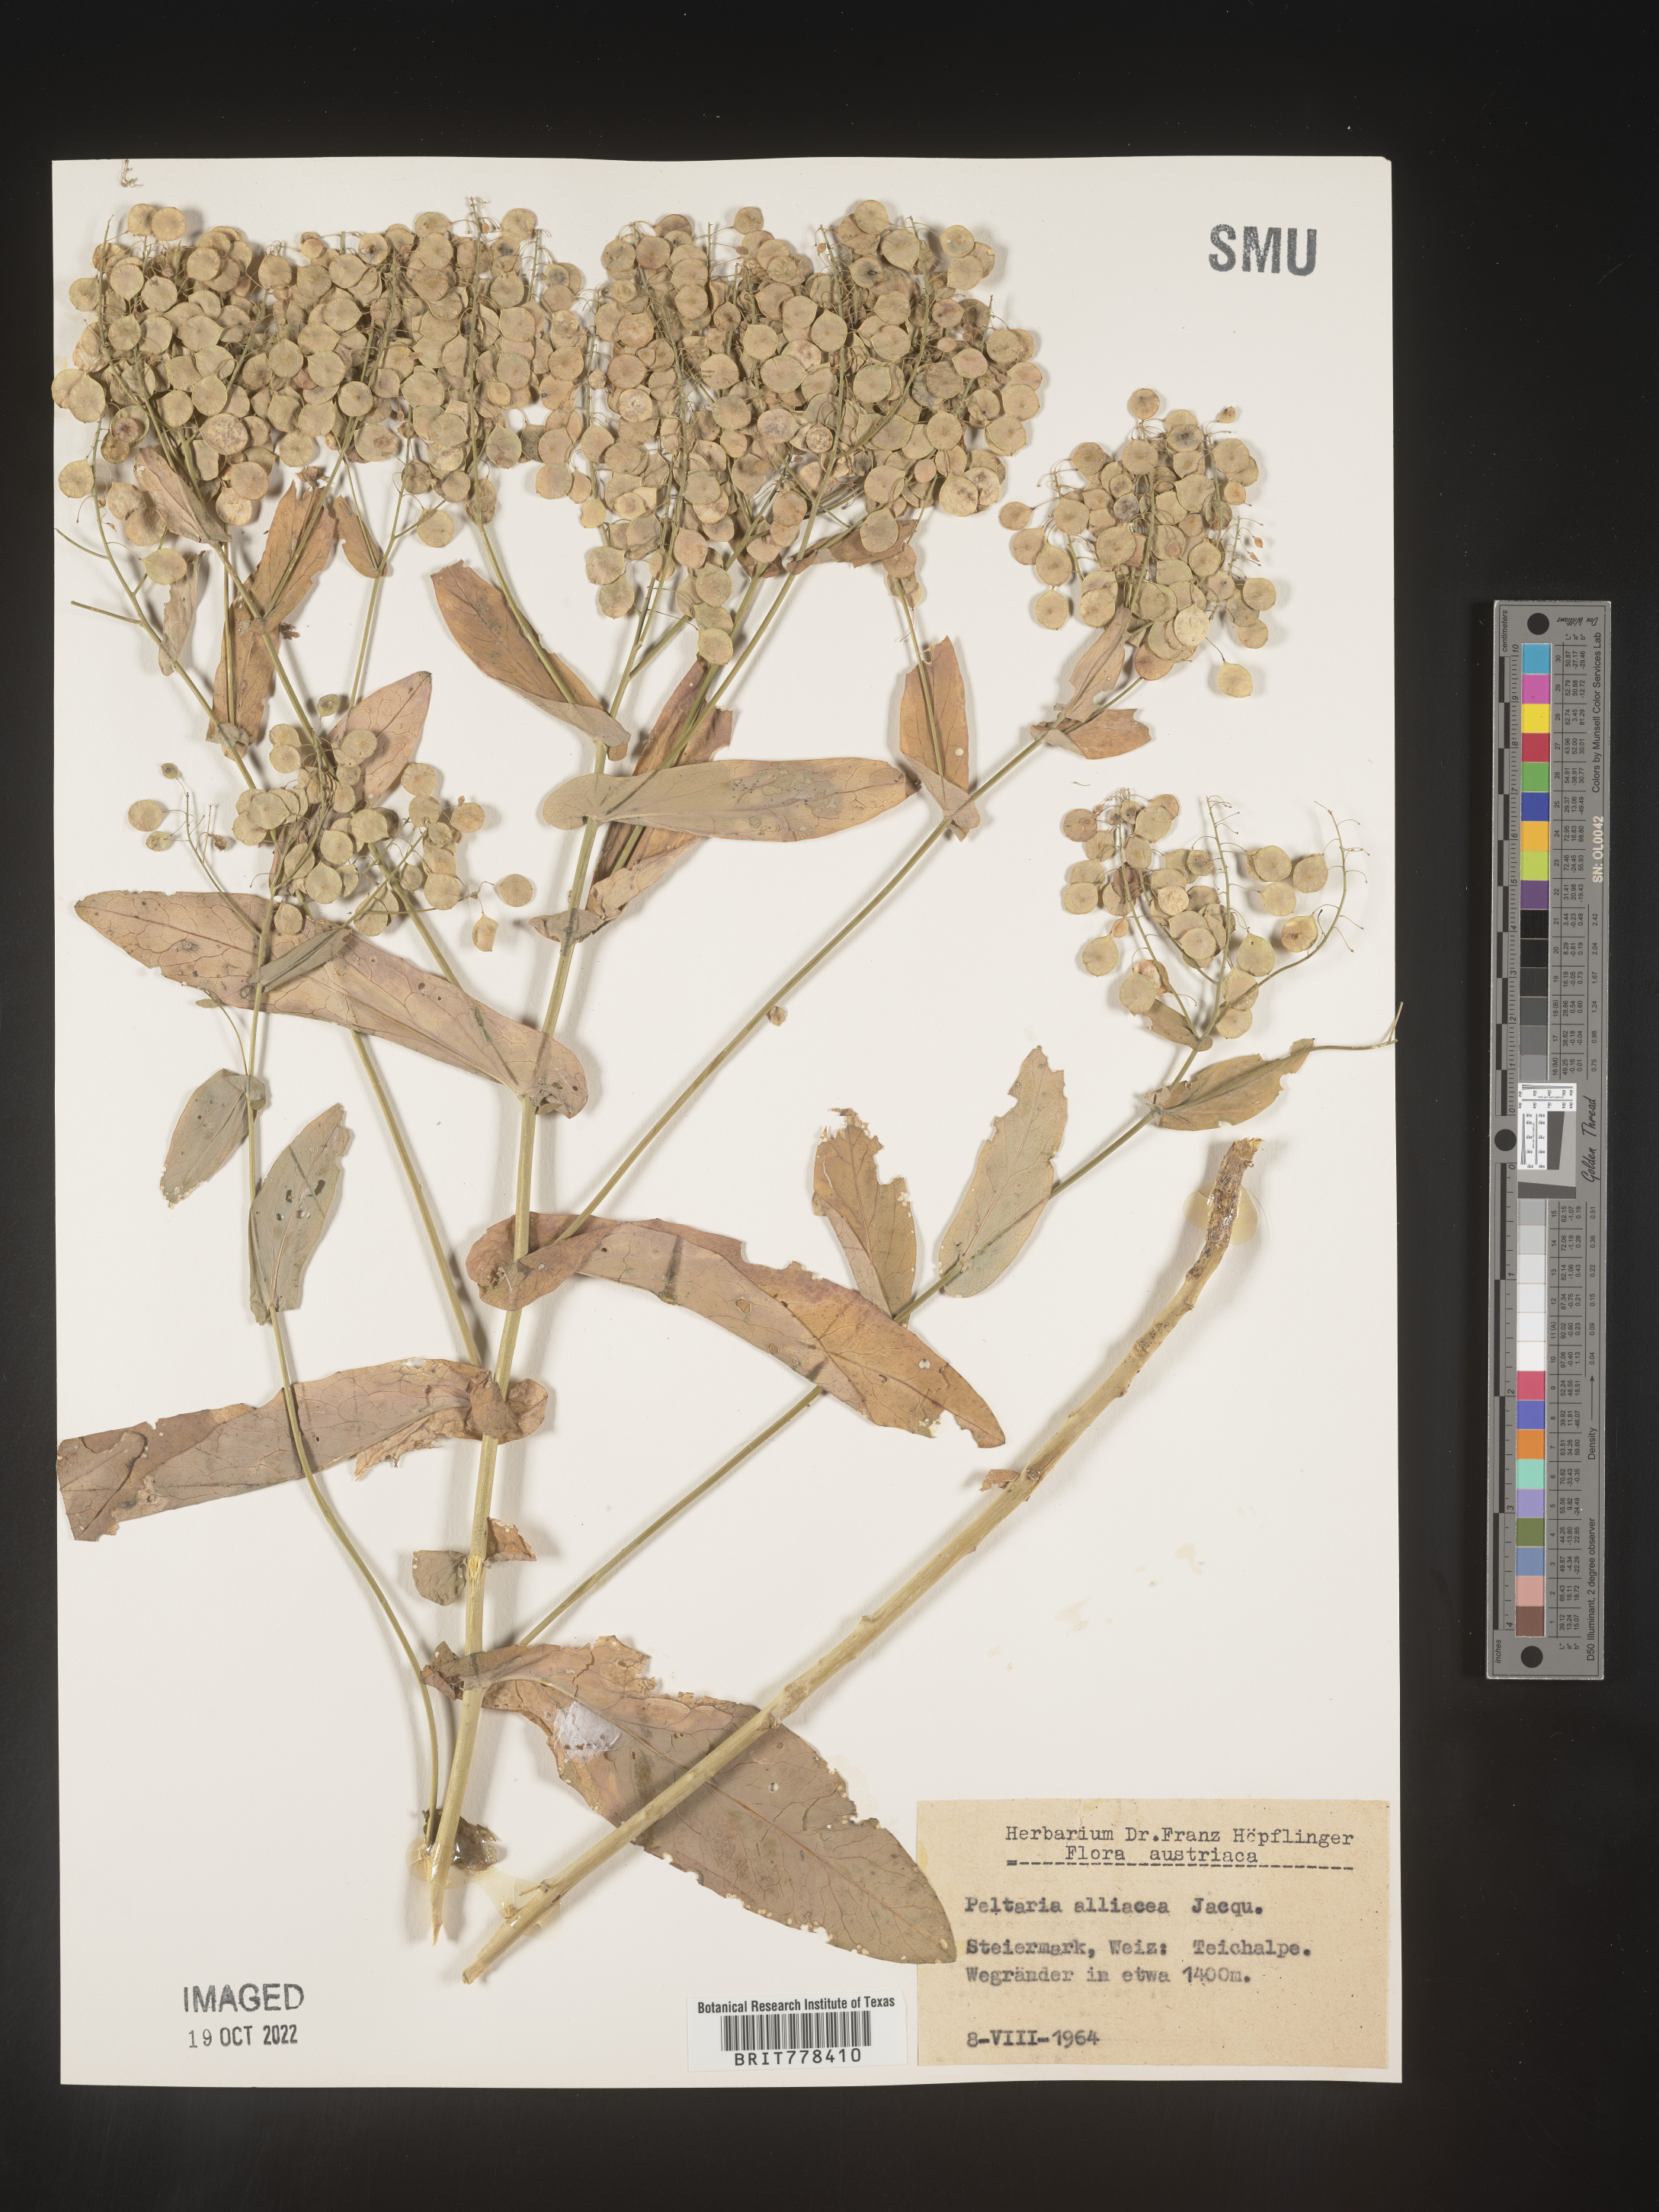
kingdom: Plantae
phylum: Tracheophyta
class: Magnoliopsida
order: Brassicales
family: Brassicaceae
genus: Peltaria
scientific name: Peltaria
